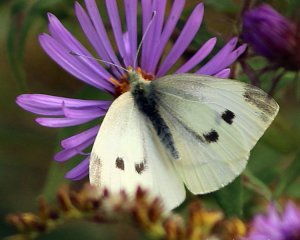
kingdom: Animalia
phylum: Arthropoda
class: Insecta
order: Lepidoptera
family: Pieridae
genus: Pieris
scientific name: Pieris rapae
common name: Cabbage White
